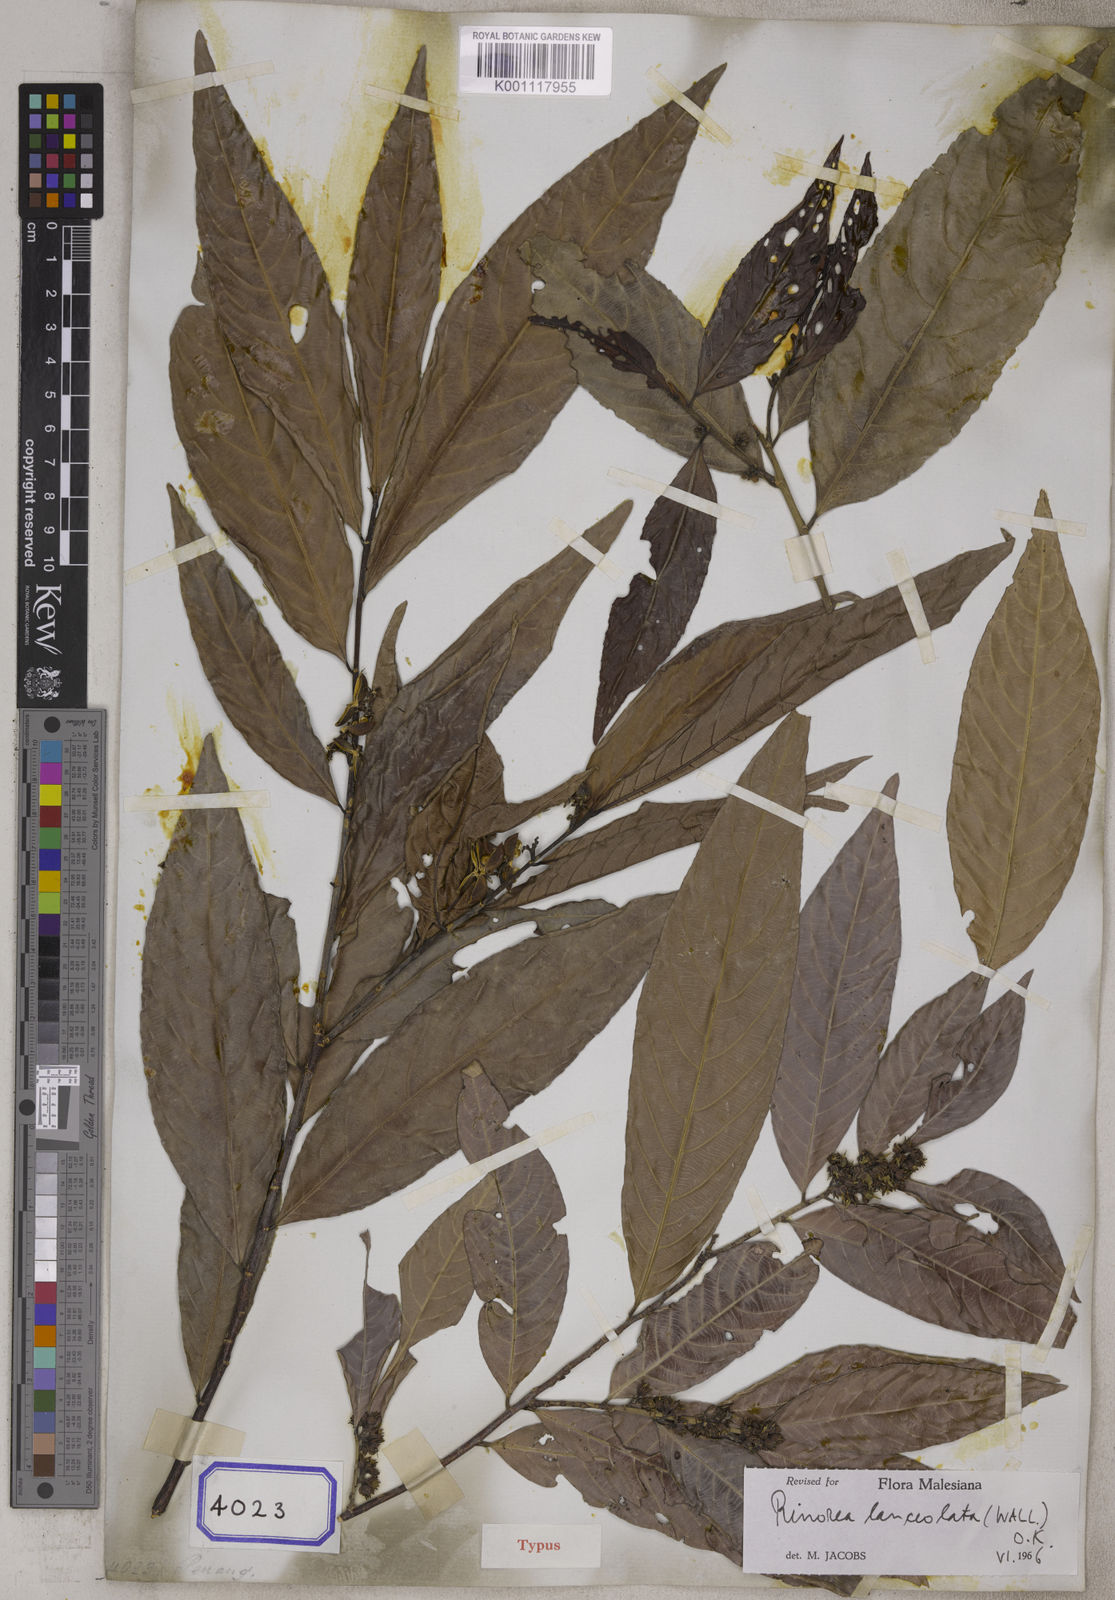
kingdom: Plantae
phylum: Tracheophyta
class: Magnoliopsida
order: Malpighiales
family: Violaceae
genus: Rinorea
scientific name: Rinorea lanceolata
